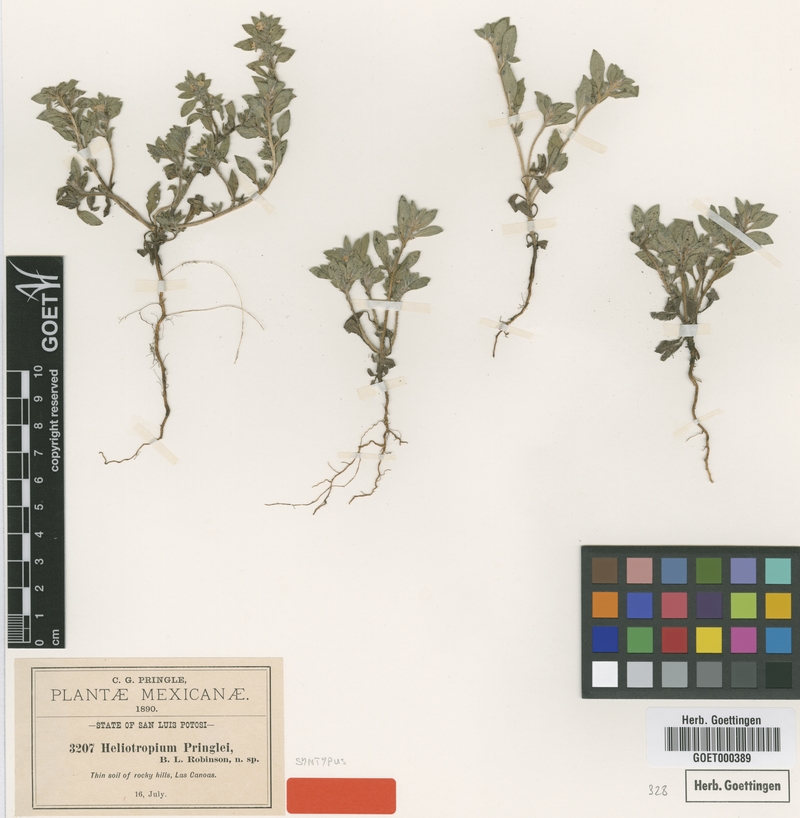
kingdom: Plantae
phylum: Tracheophyta
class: Magnoliopsida
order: Boraginales
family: Heliotropiaceae
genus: Euploca
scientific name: Euploca pringlei
